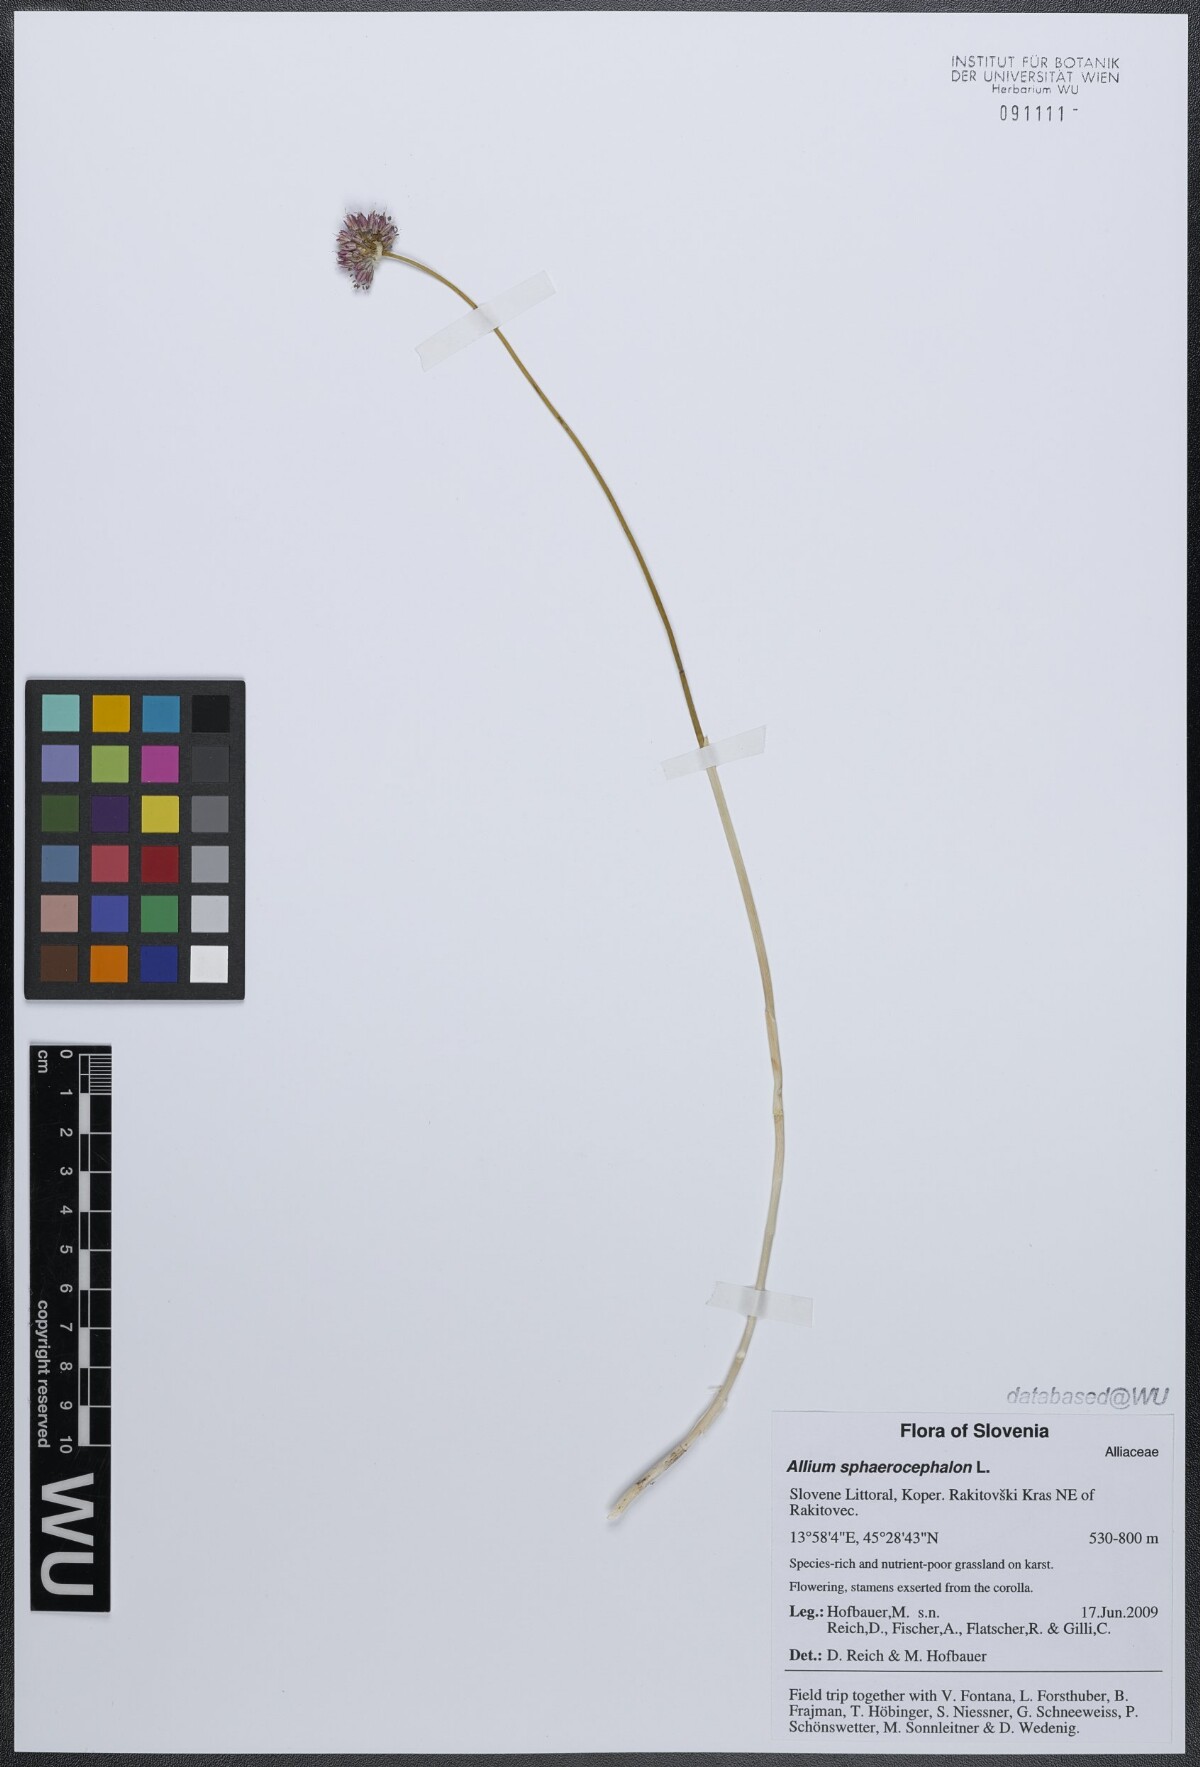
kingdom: Plantae
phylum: Tracheophyta
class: Liliopsida
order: Asparagales
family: Amaryllidaceae
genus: Allium
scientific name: Allium sphaerocephalon
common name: Round-headed leek
